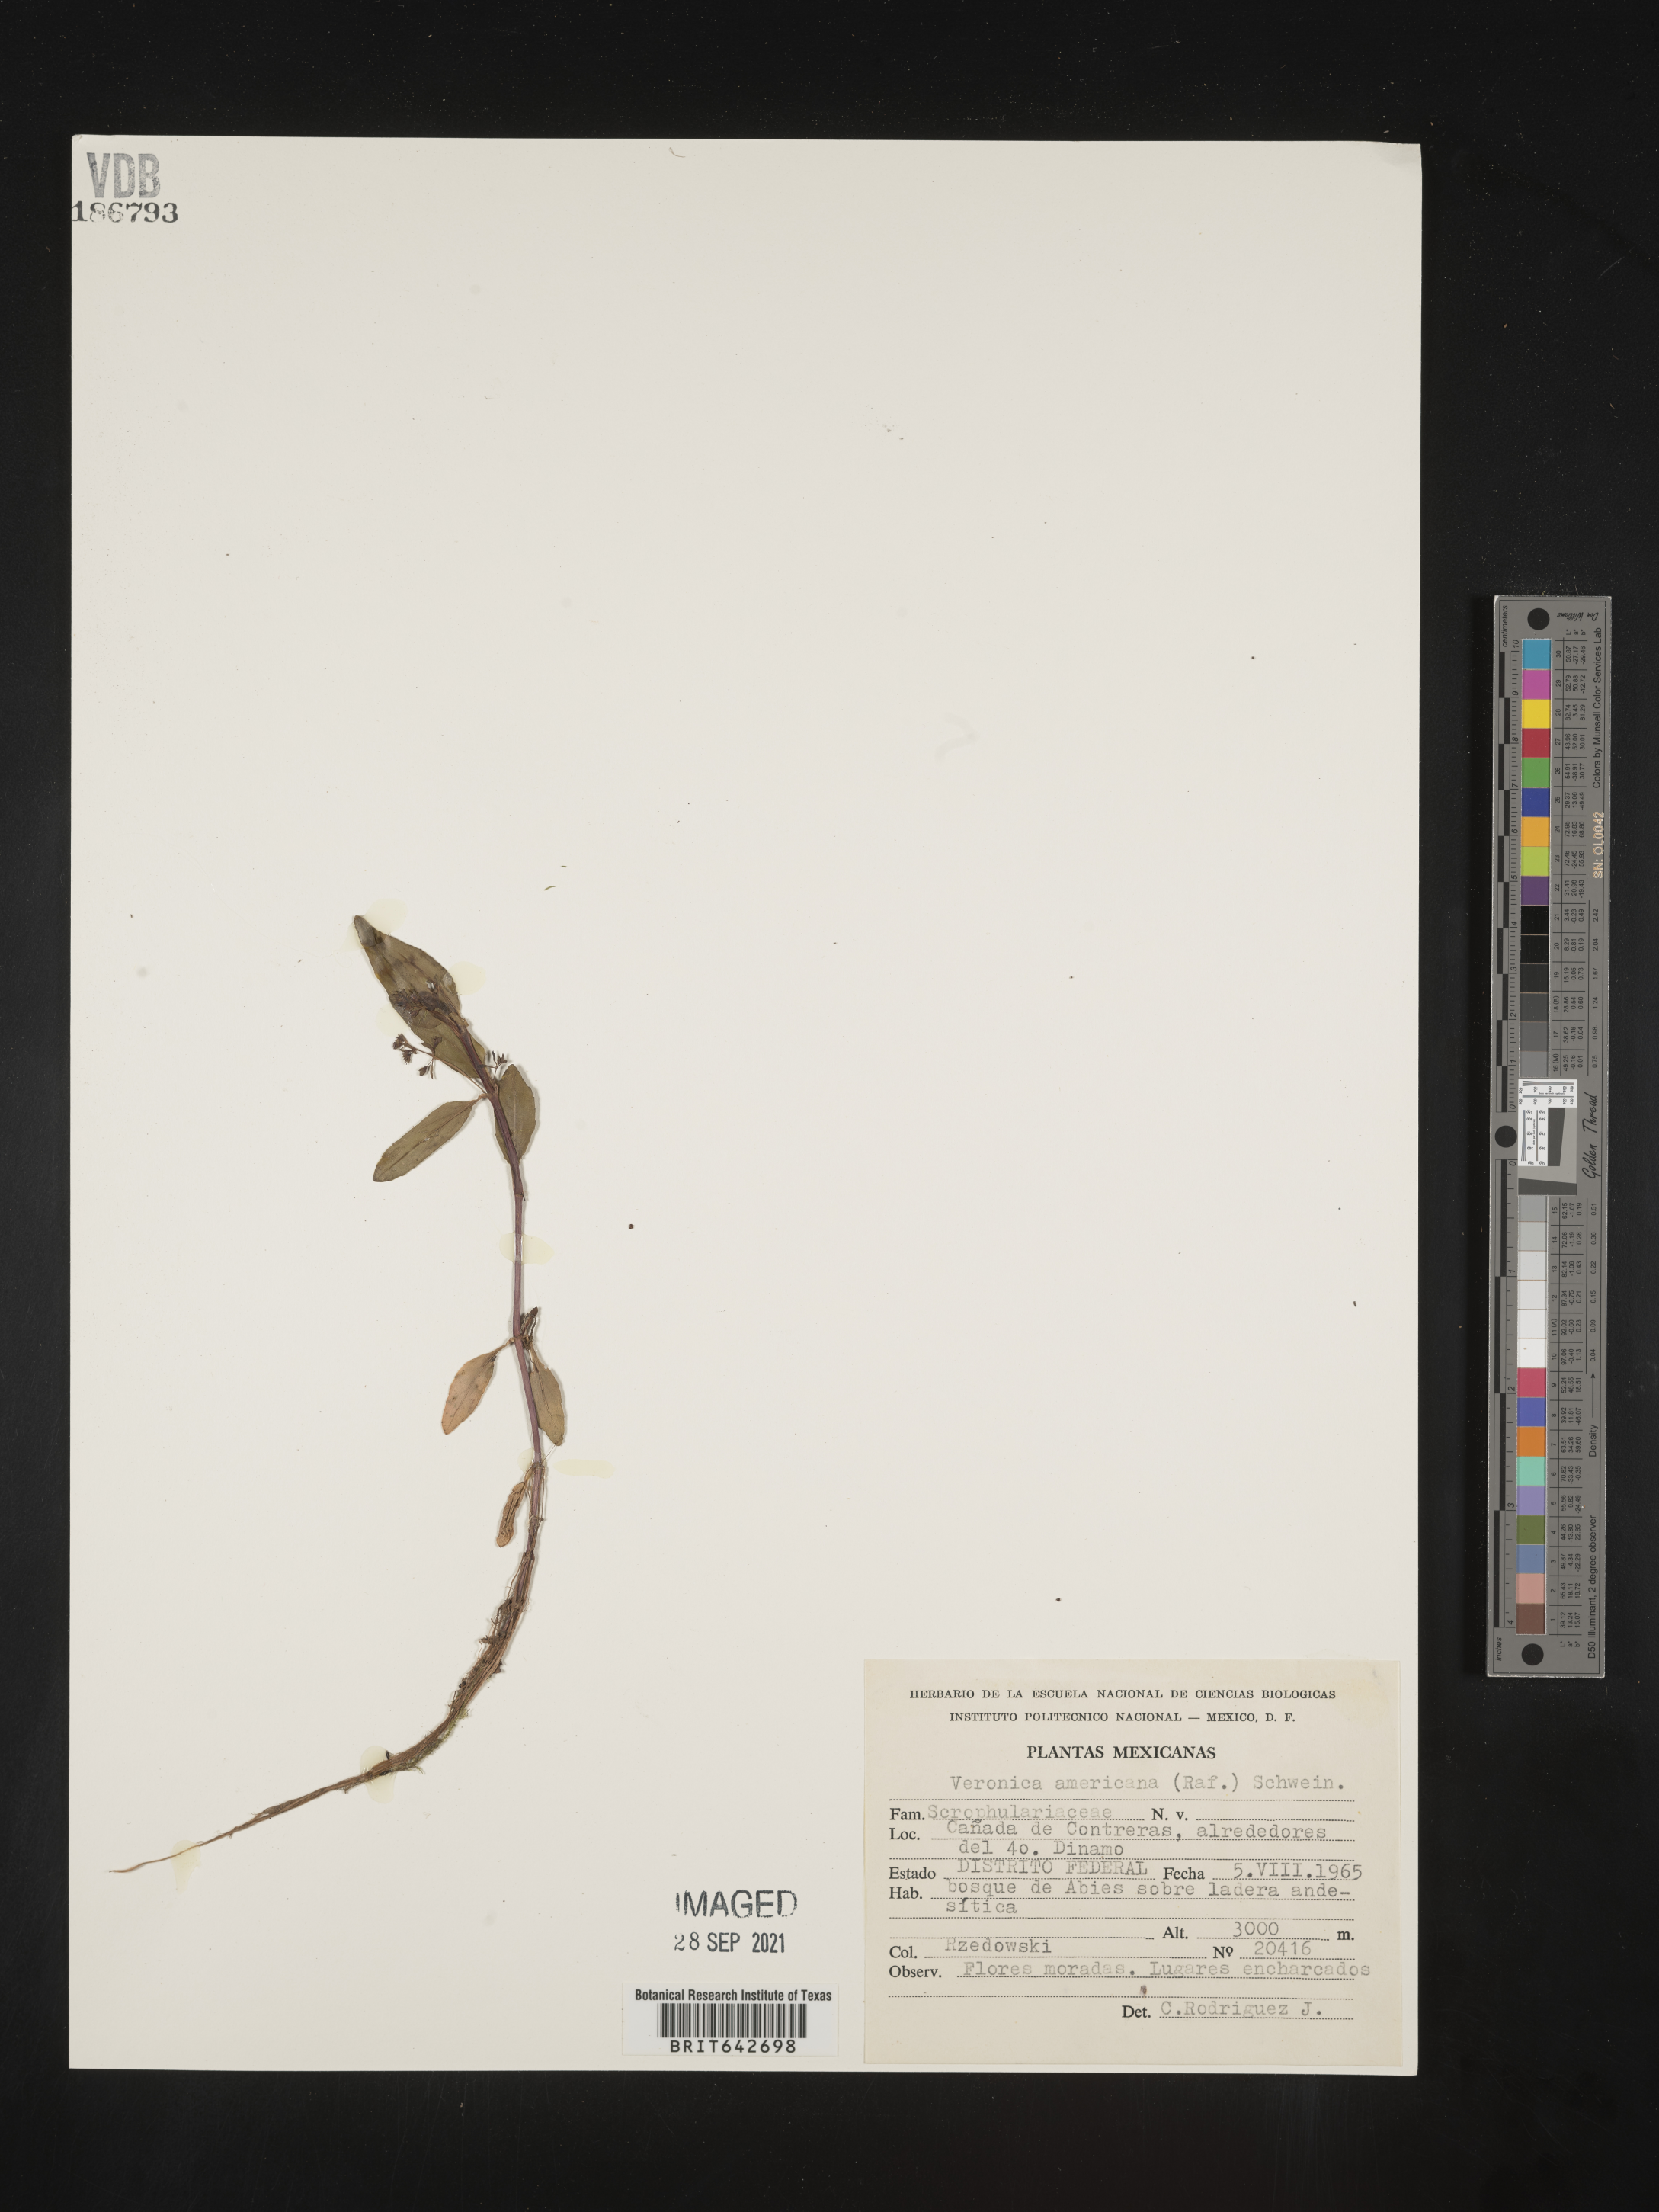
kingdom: Plantae
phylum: Tracheophyta
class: Magnoliopsida
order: Lamiales
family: Plantaginaceae
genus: Veronica
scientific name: Veronica
